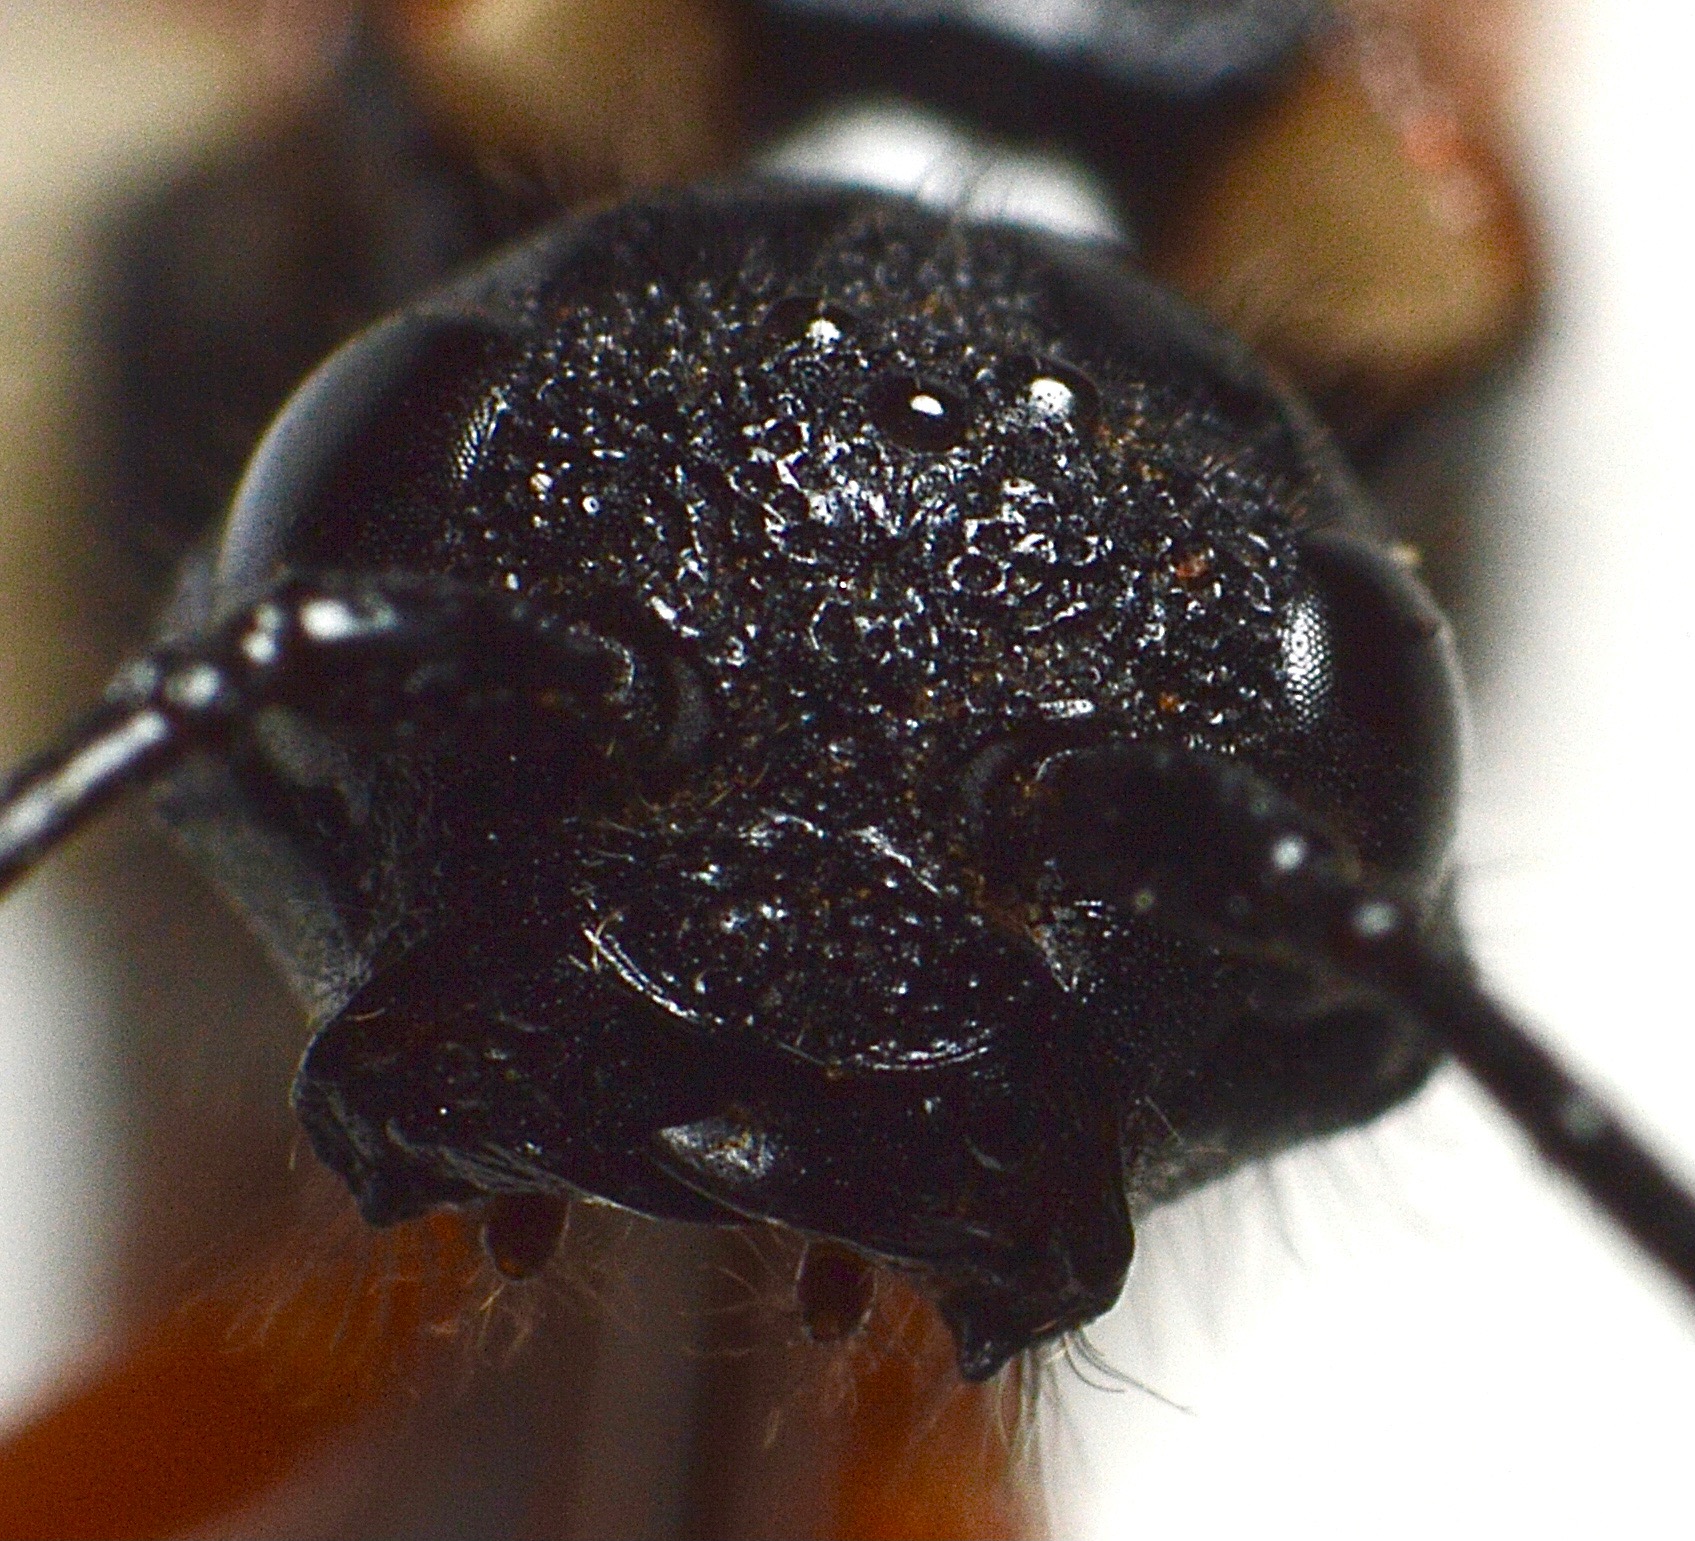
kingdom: Animalia
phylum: Arthropoda
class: Insecta
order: Hymenoptera
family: Siricidae
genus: Xeris
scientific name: Xeris pallicoxae
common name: Lys sabeltræhveps
